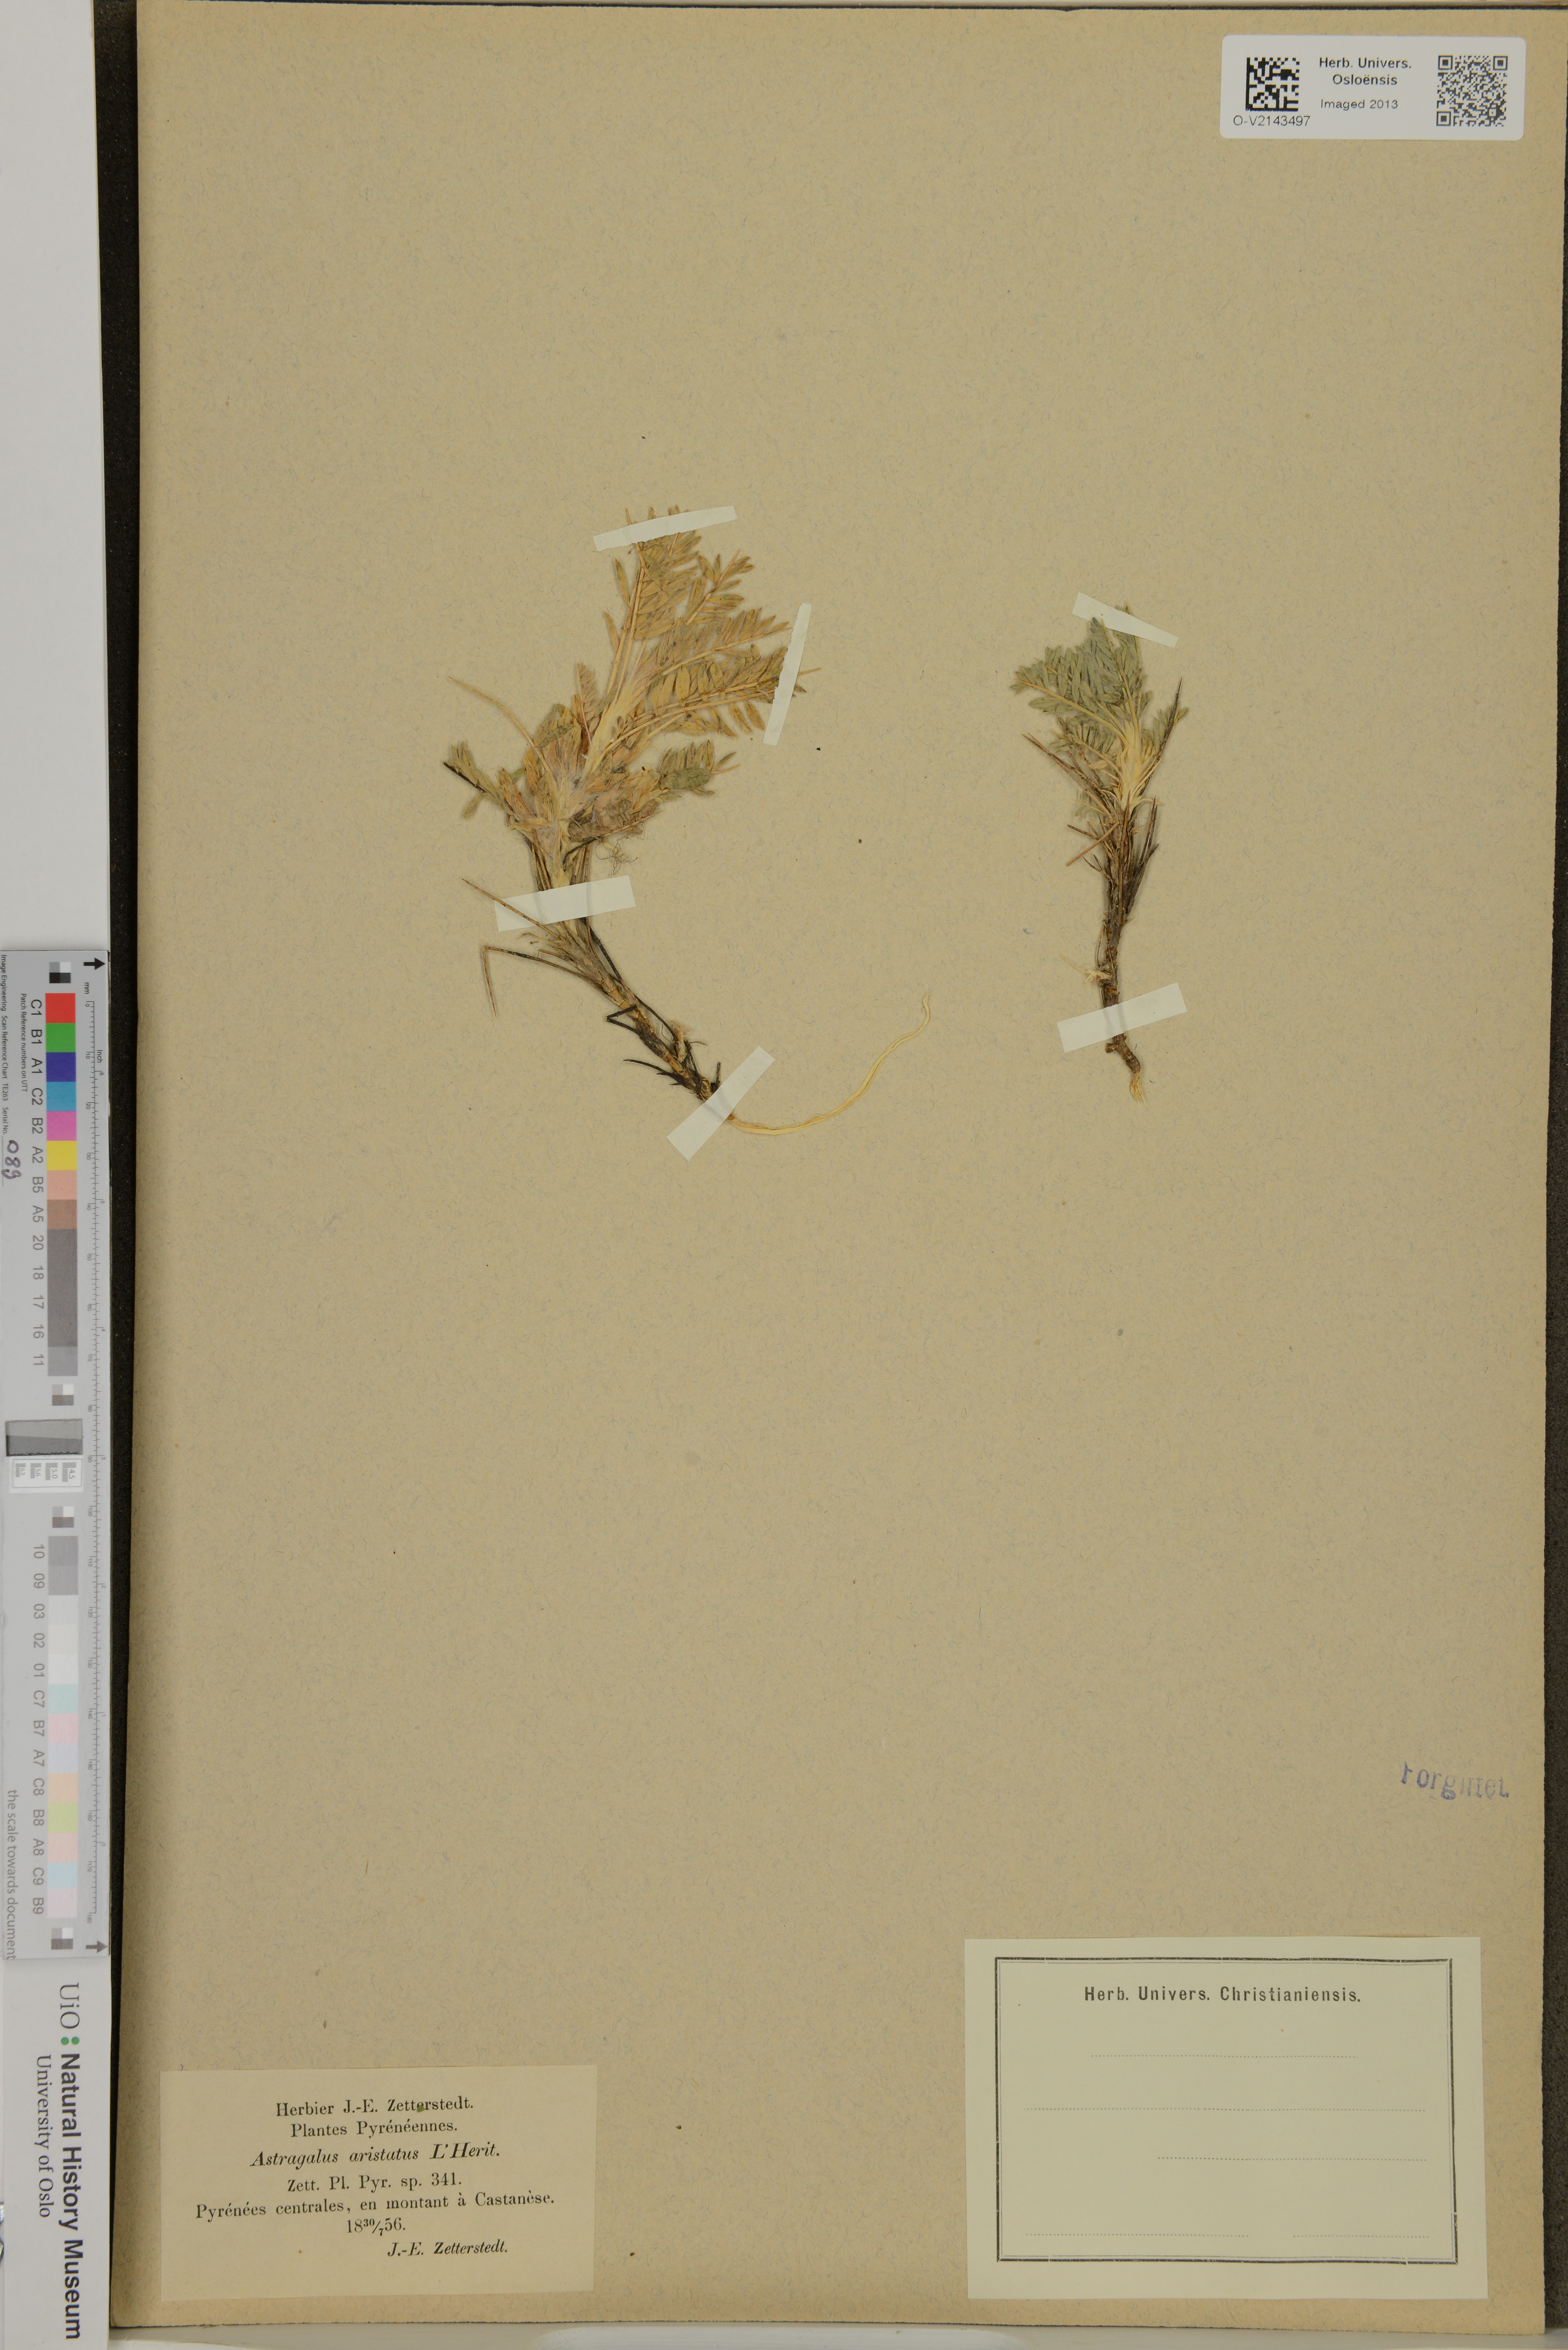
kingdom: Plantae
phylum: Tracheophyta
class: Magnoliopsida
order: Fabales
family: Fabaceae
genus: Astragalus
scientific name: Astragalus
